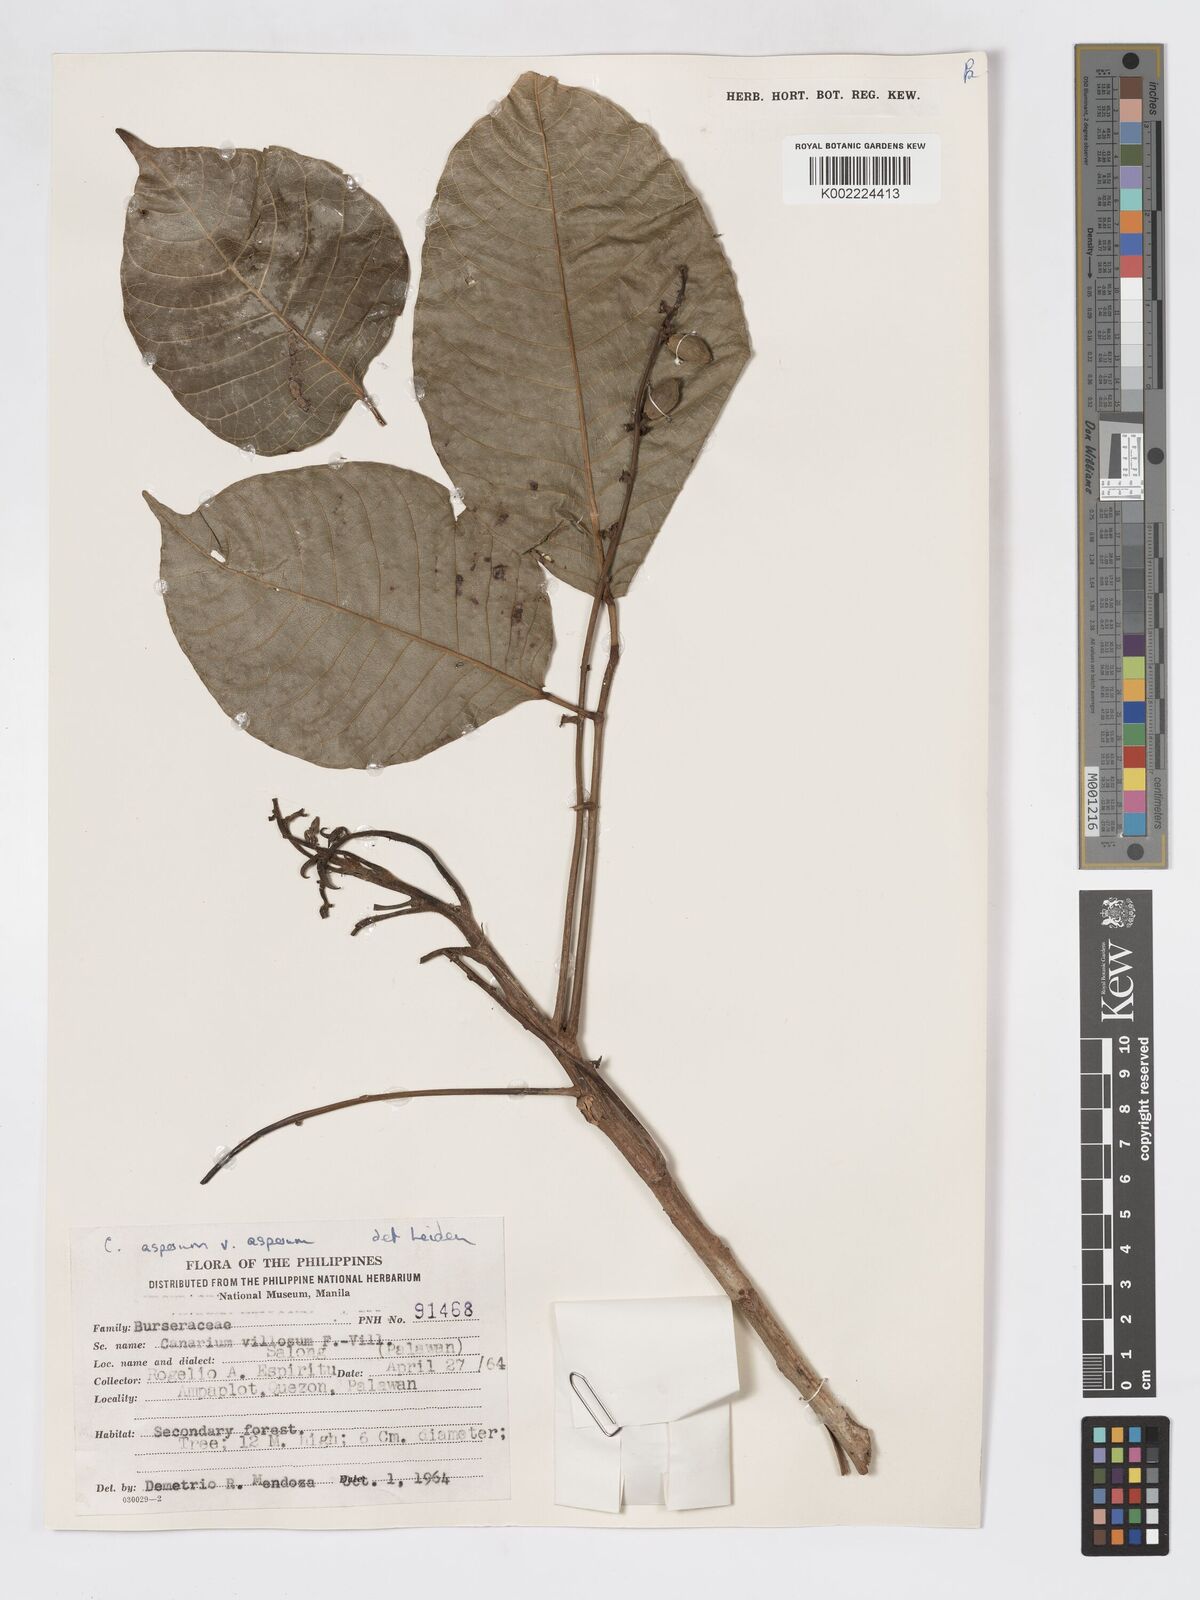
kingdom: Plantae
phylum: Tracheophyta
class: Magnoliopsida
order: Sapindales
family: Burseraceae
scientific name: Burseraceae
